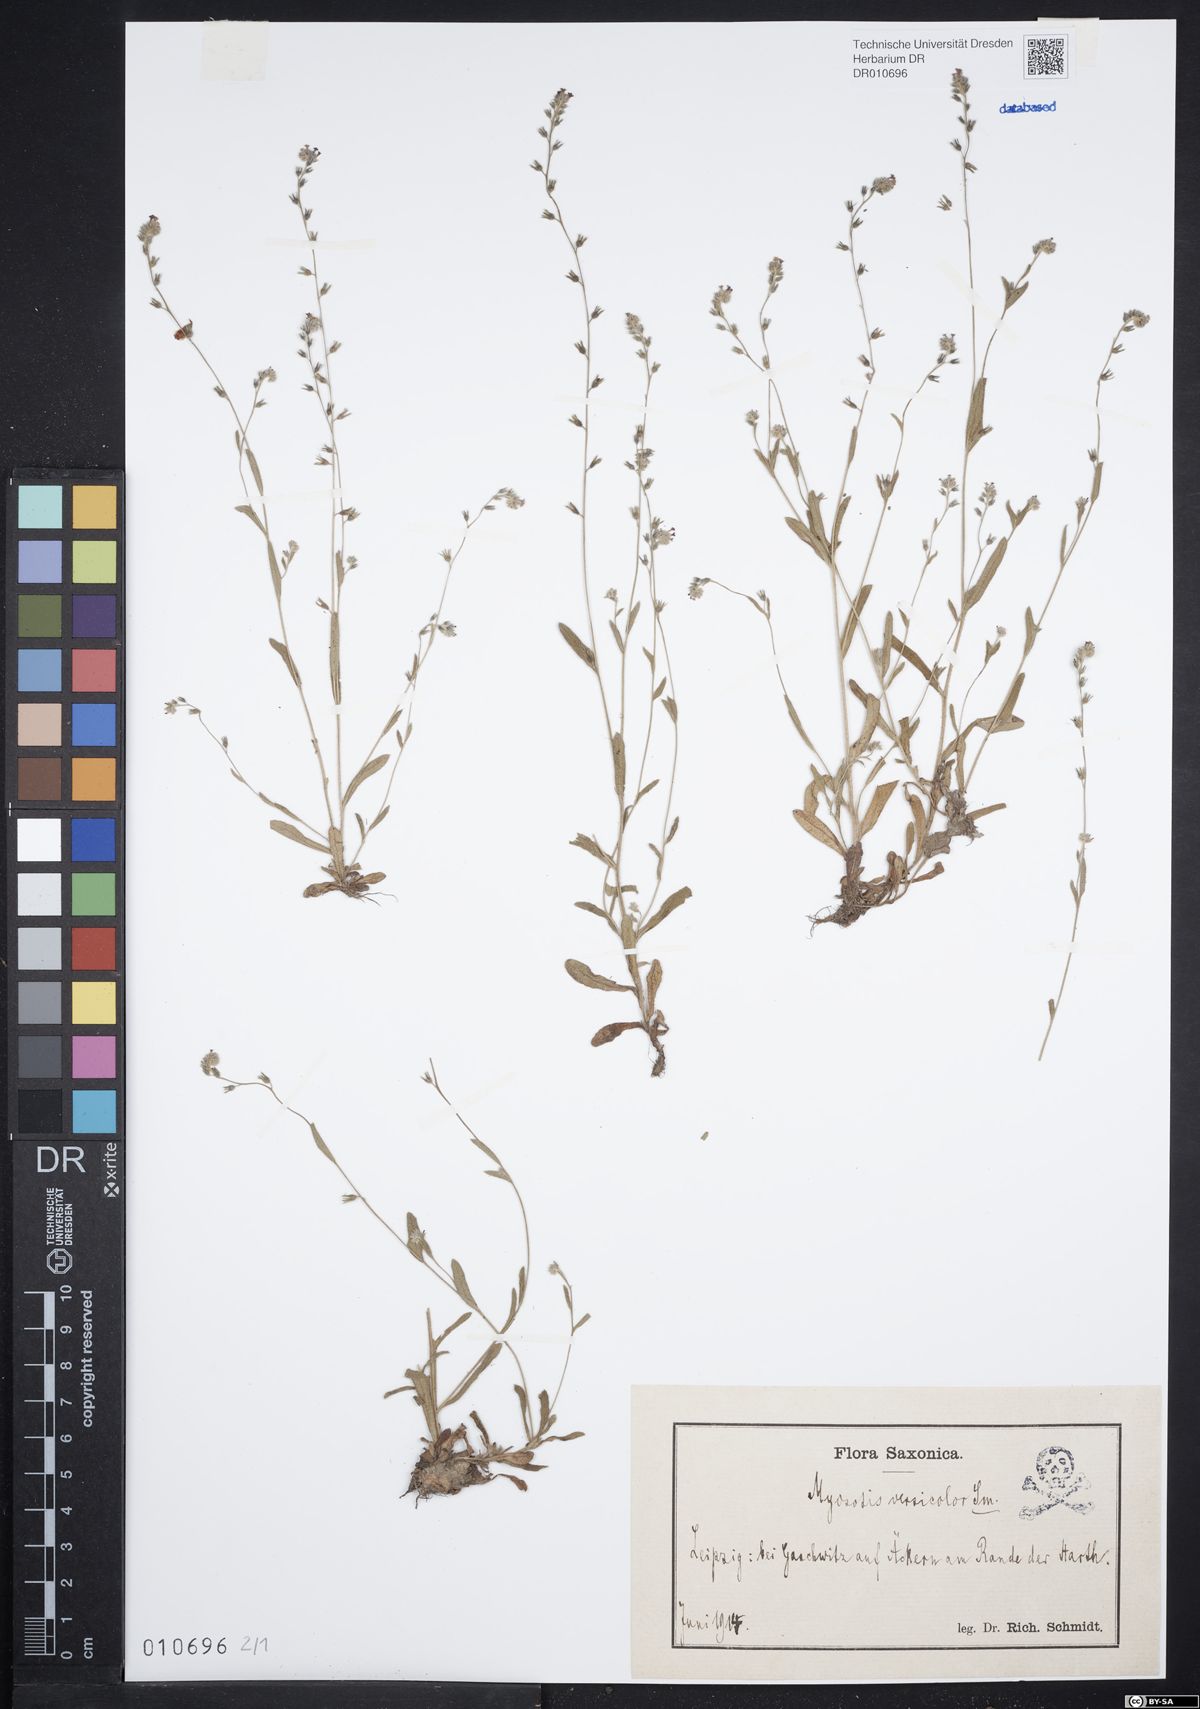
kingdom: Plantae
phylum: Tracheophyta
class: Magnoliopsida
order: Boraginales
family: Boraginaceae
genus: Myosotis
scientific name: Myosotis discolor
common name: Changing forget-me-not
